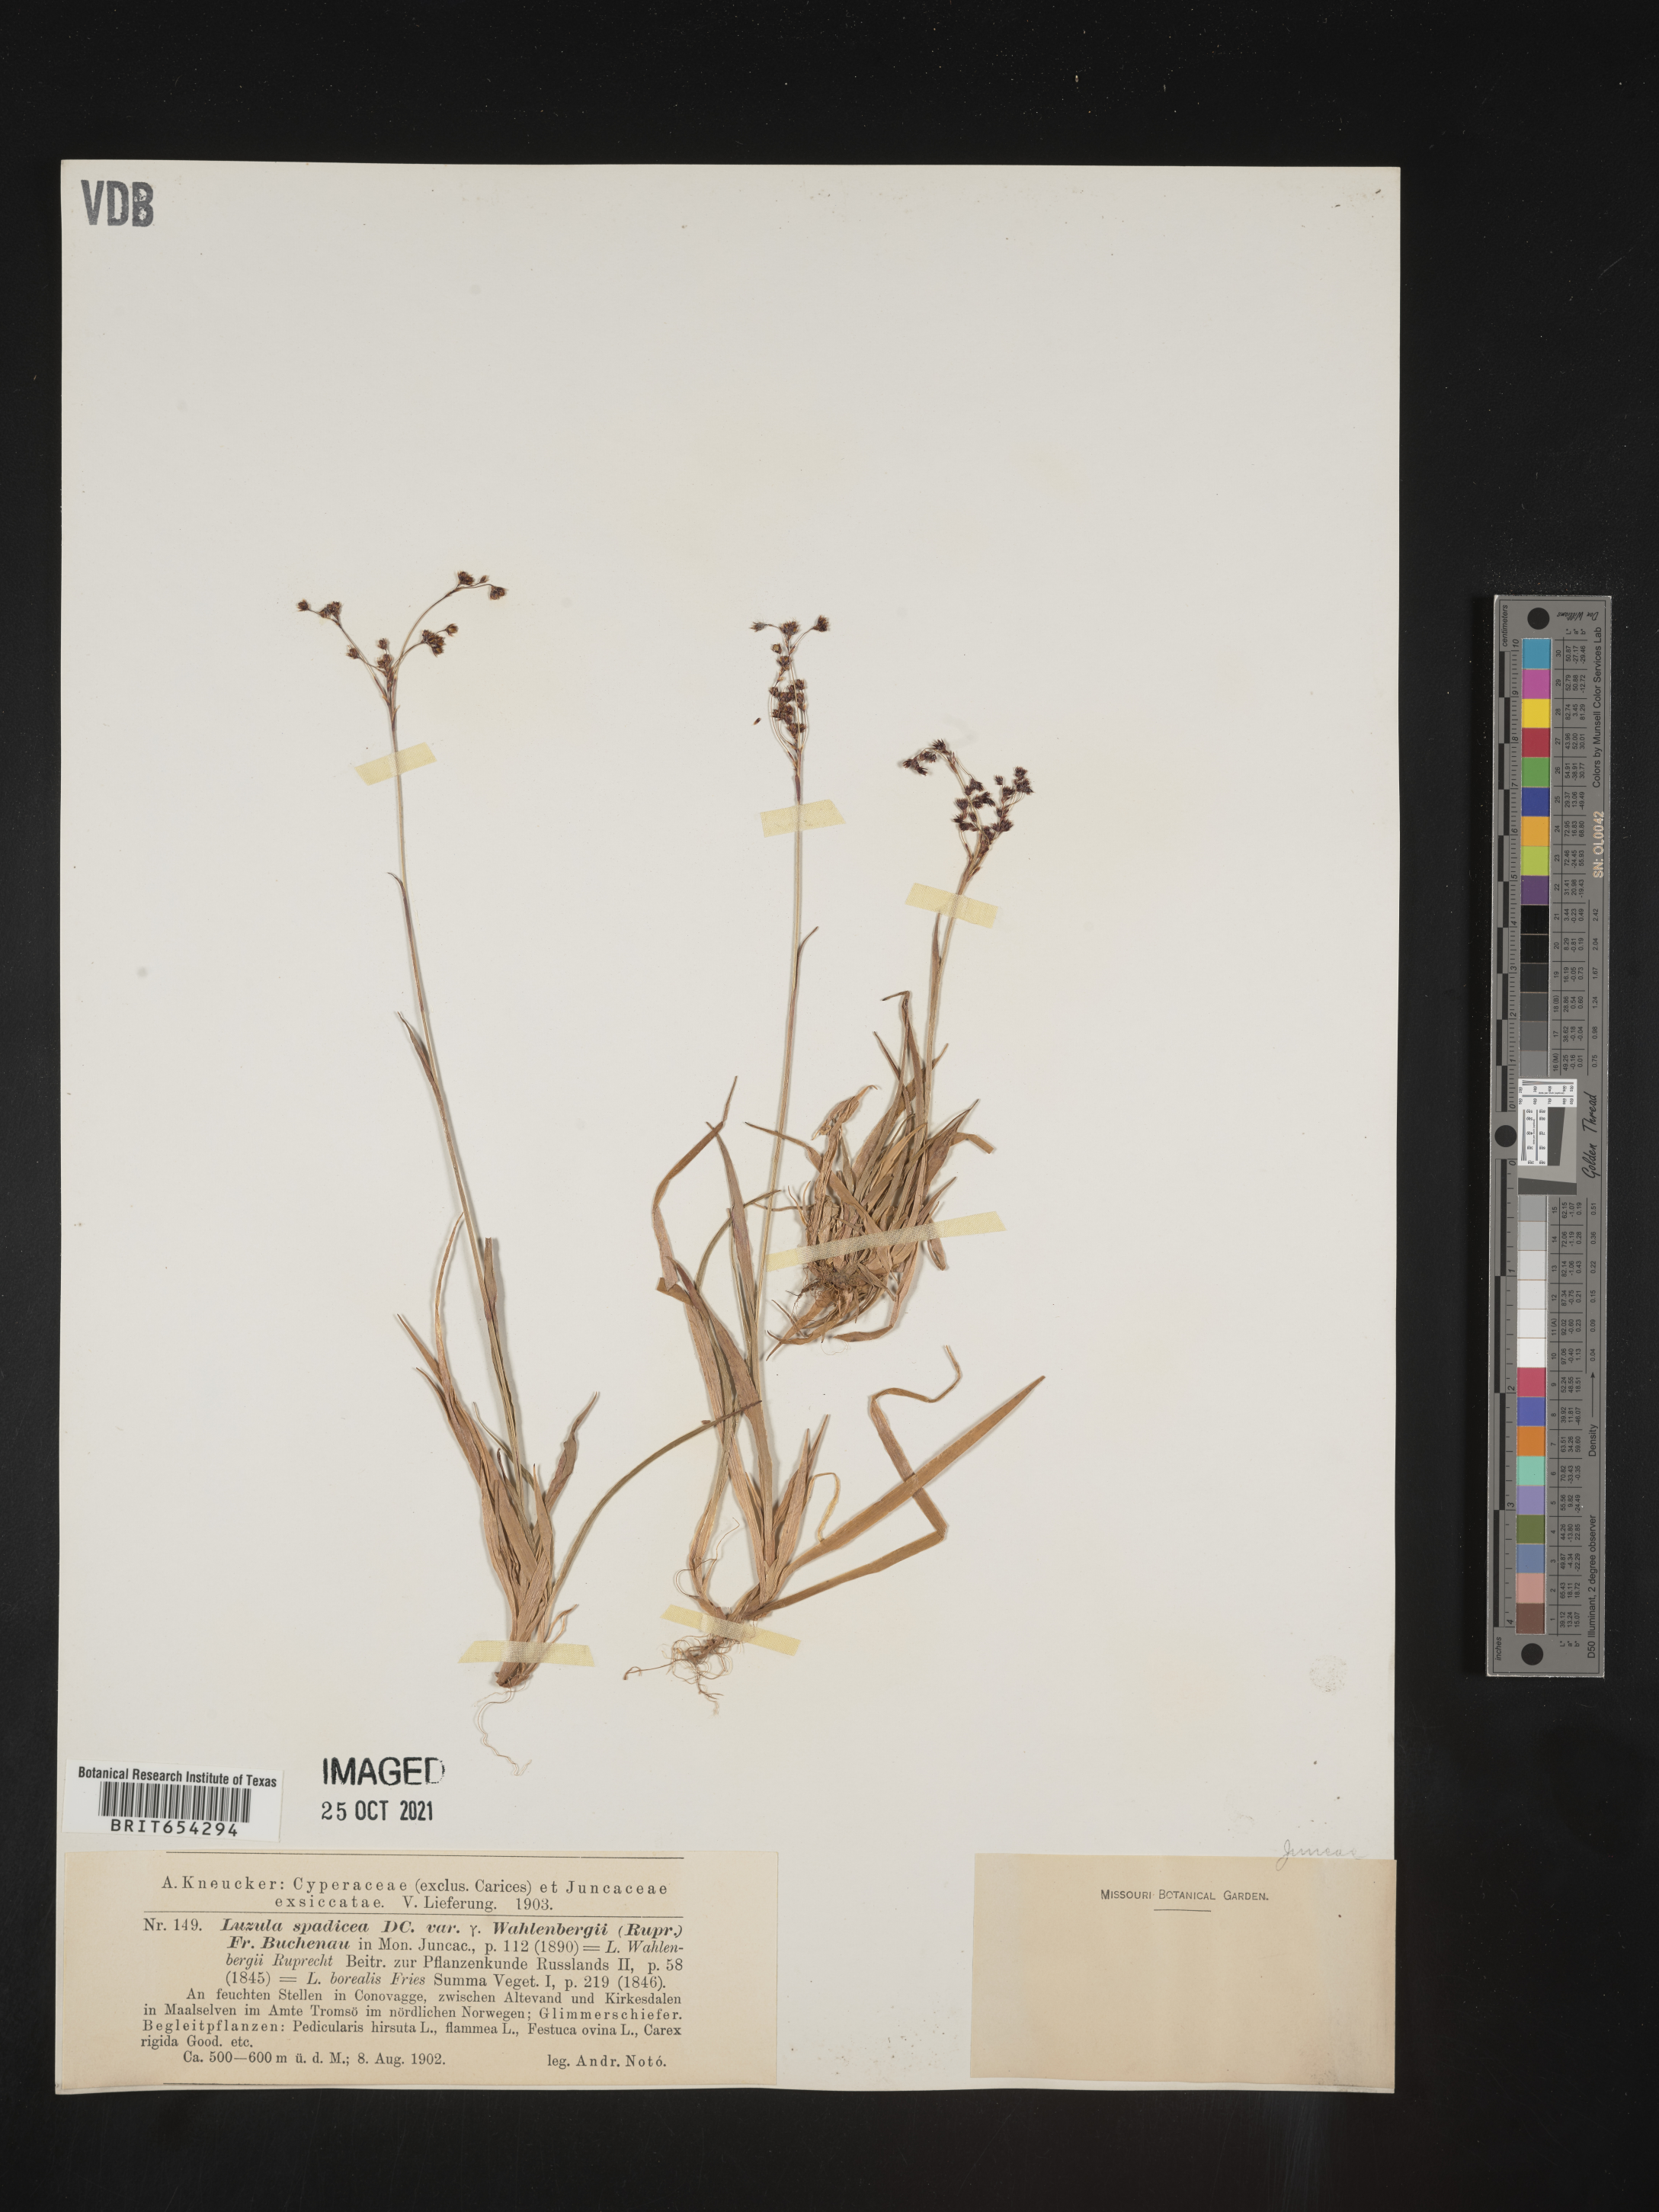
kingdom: Plantae
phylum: Tracheophyta
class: Liliopsida
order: Poales
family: Juncaceae
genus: Luzula
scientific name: Luzula
